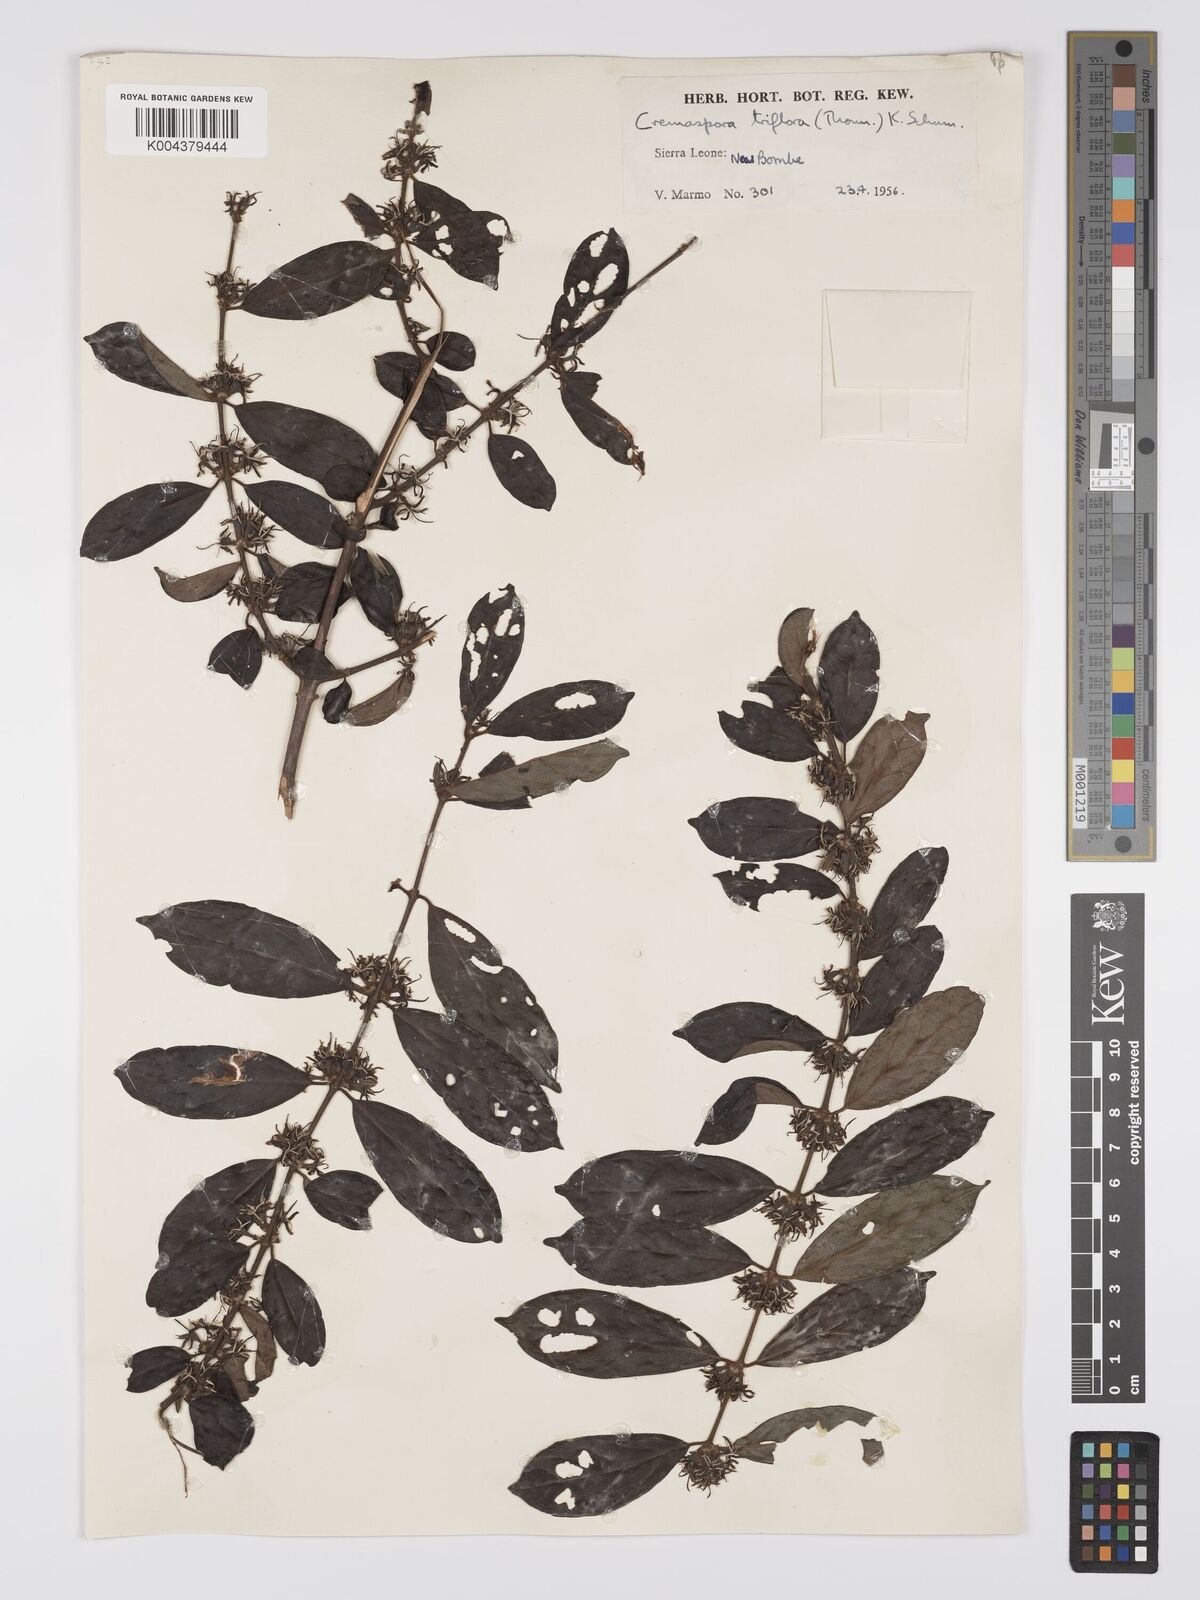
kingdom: Plantae
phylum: Tracheophyta
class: Magnoliopsida
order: Gentianales
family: Rubiaceae
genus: Cremaspora
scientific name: Cremaspora triflora
